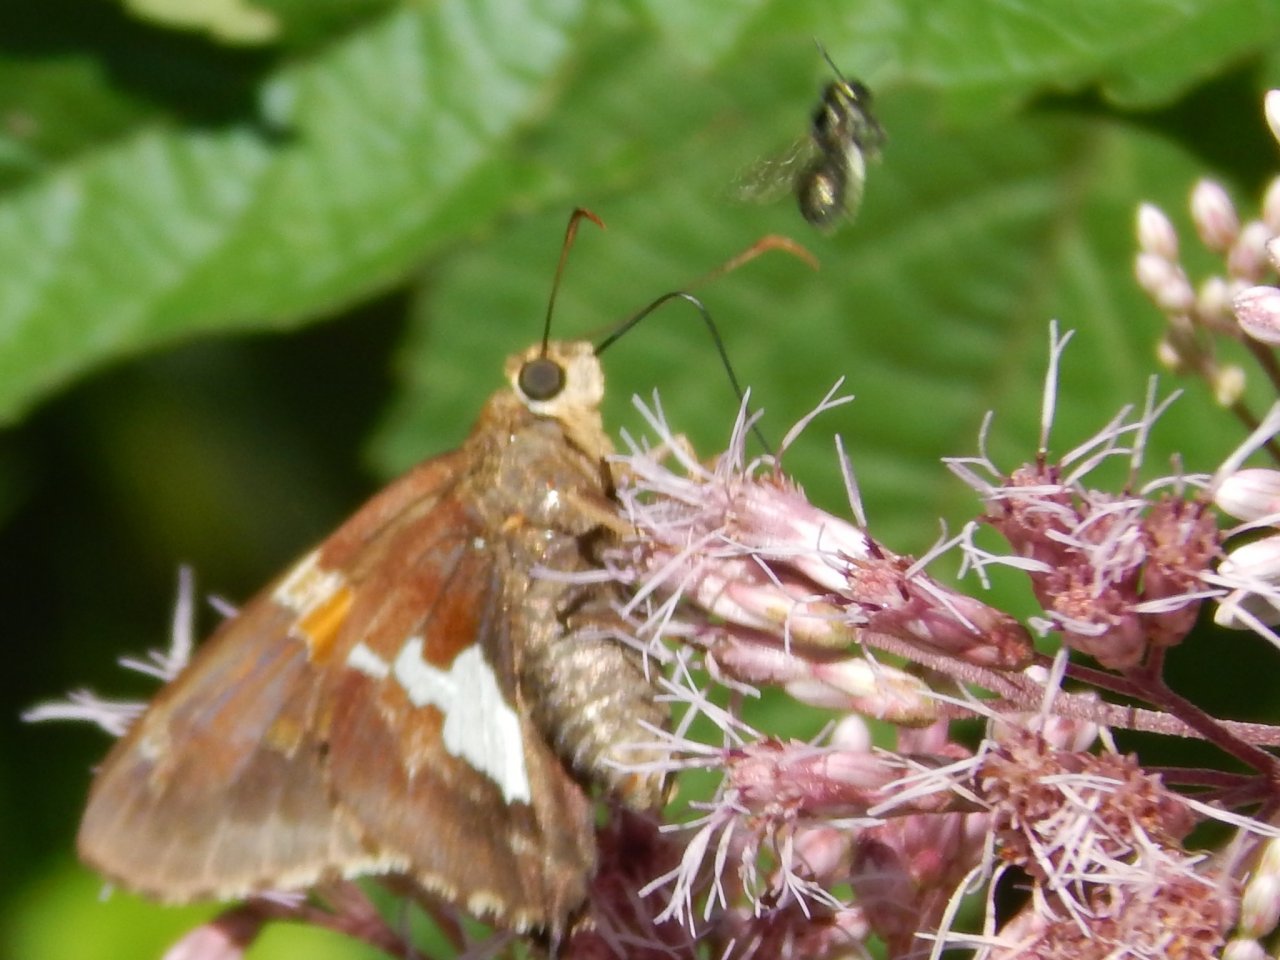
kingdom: Animalia
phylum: Arthropoda
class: Insecta
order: Lepidoptera
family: Hesperiidae
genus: Epargyreus
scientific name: Epargyreus clarus
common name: Silver-spotted Skipper
